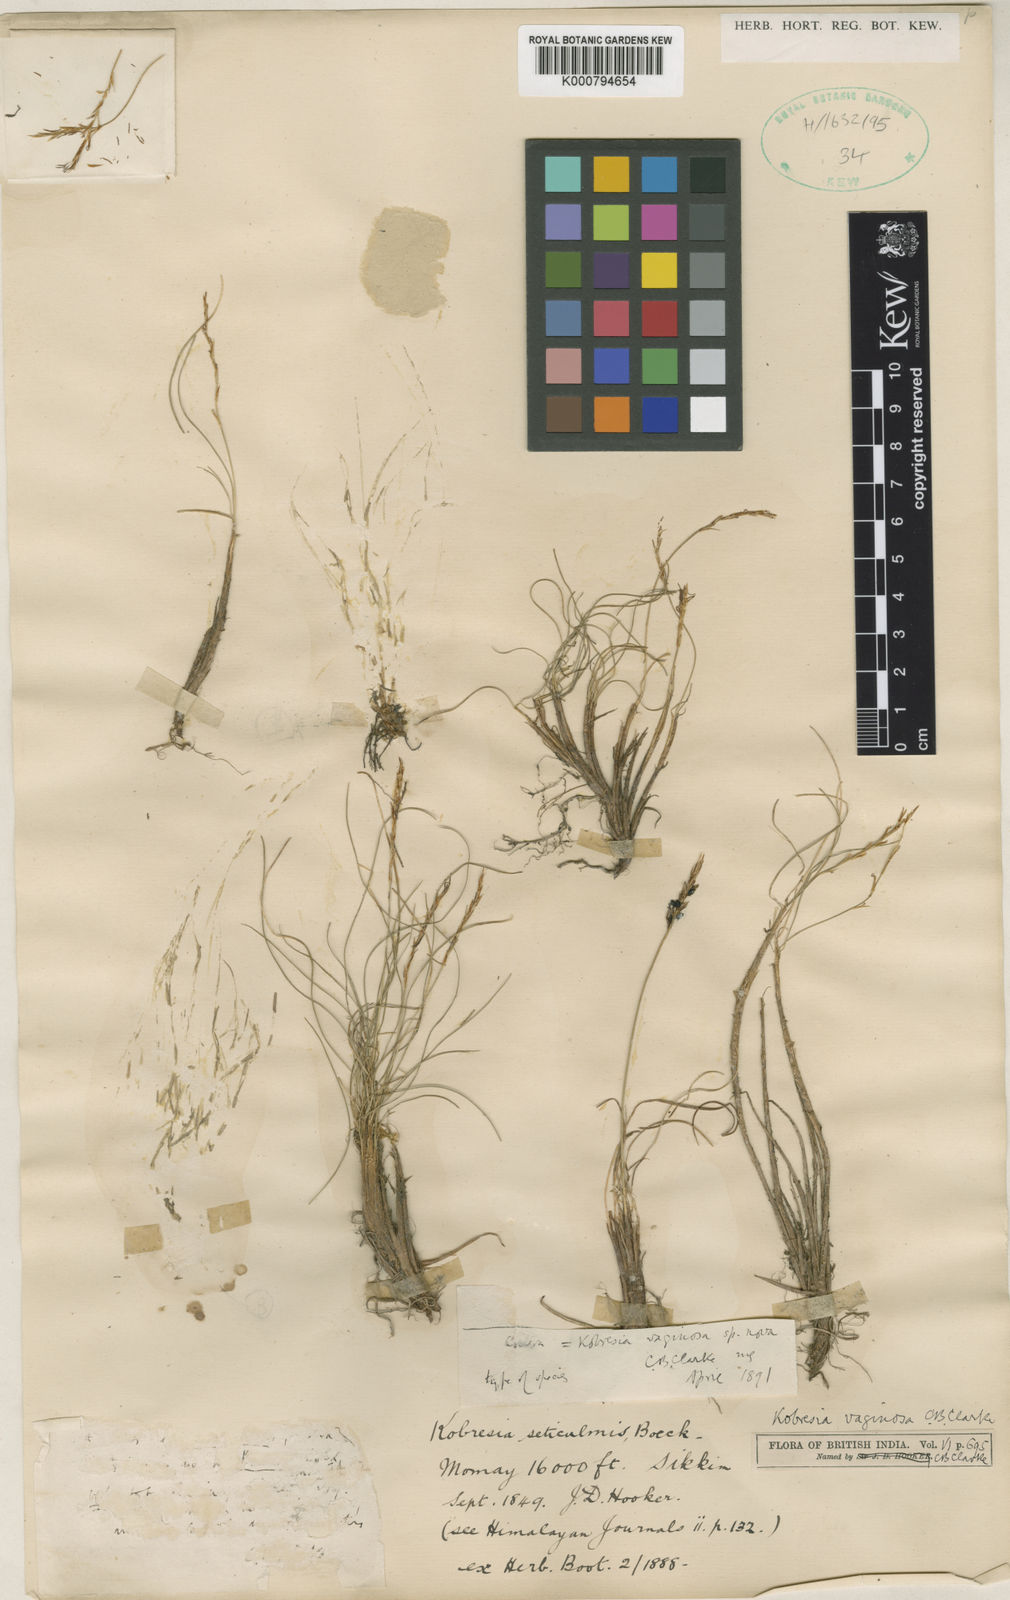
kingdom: Plantae
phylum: Tracheophyta
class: Liliopsida
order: Poales
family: Cyperaceae
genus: Carex
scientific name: Carex vaginosa
